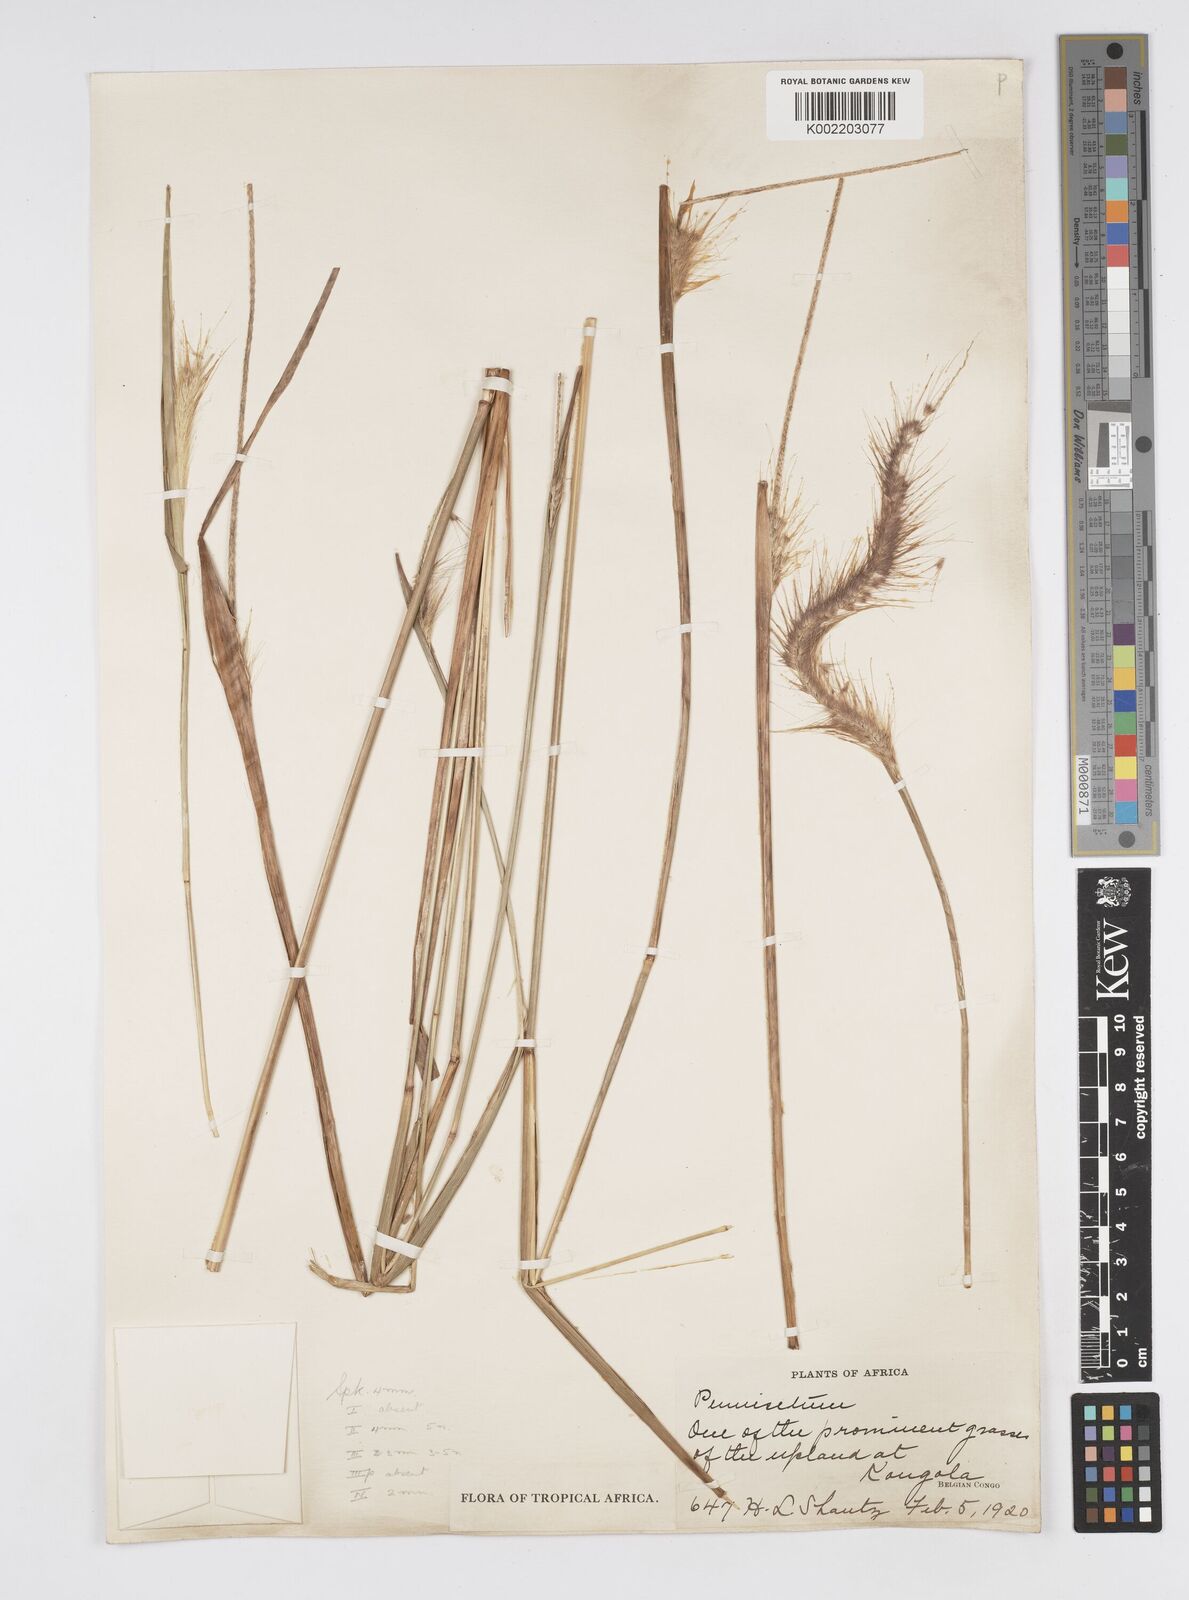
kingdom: Plantae
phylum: Tracheophyta
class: Liliopsida
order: Poales
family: Poaceae
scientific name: Poaceae
